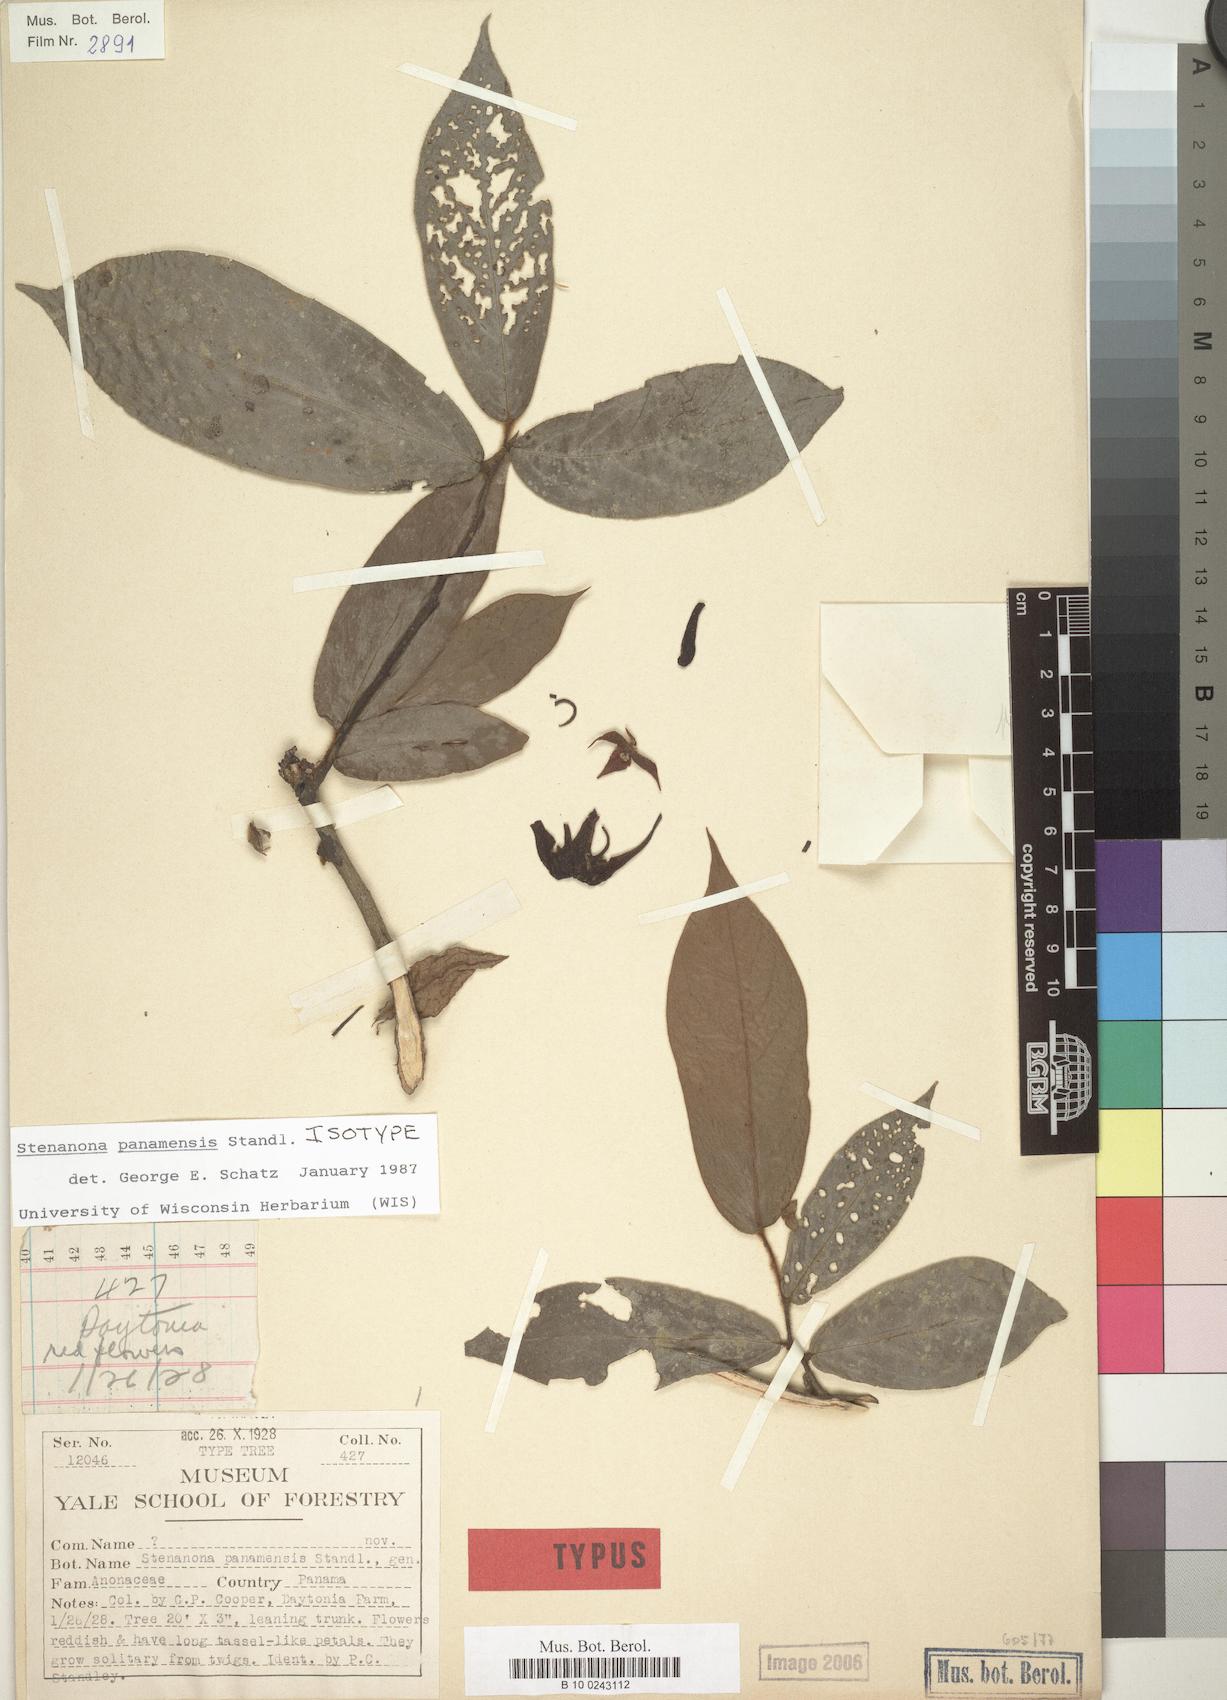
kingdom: Plantae
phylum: Tracheophyta
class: Magnoliopsida
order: Magnoliales
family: Annonaceae
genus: Stenanona
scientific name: Stenanona panamensis
